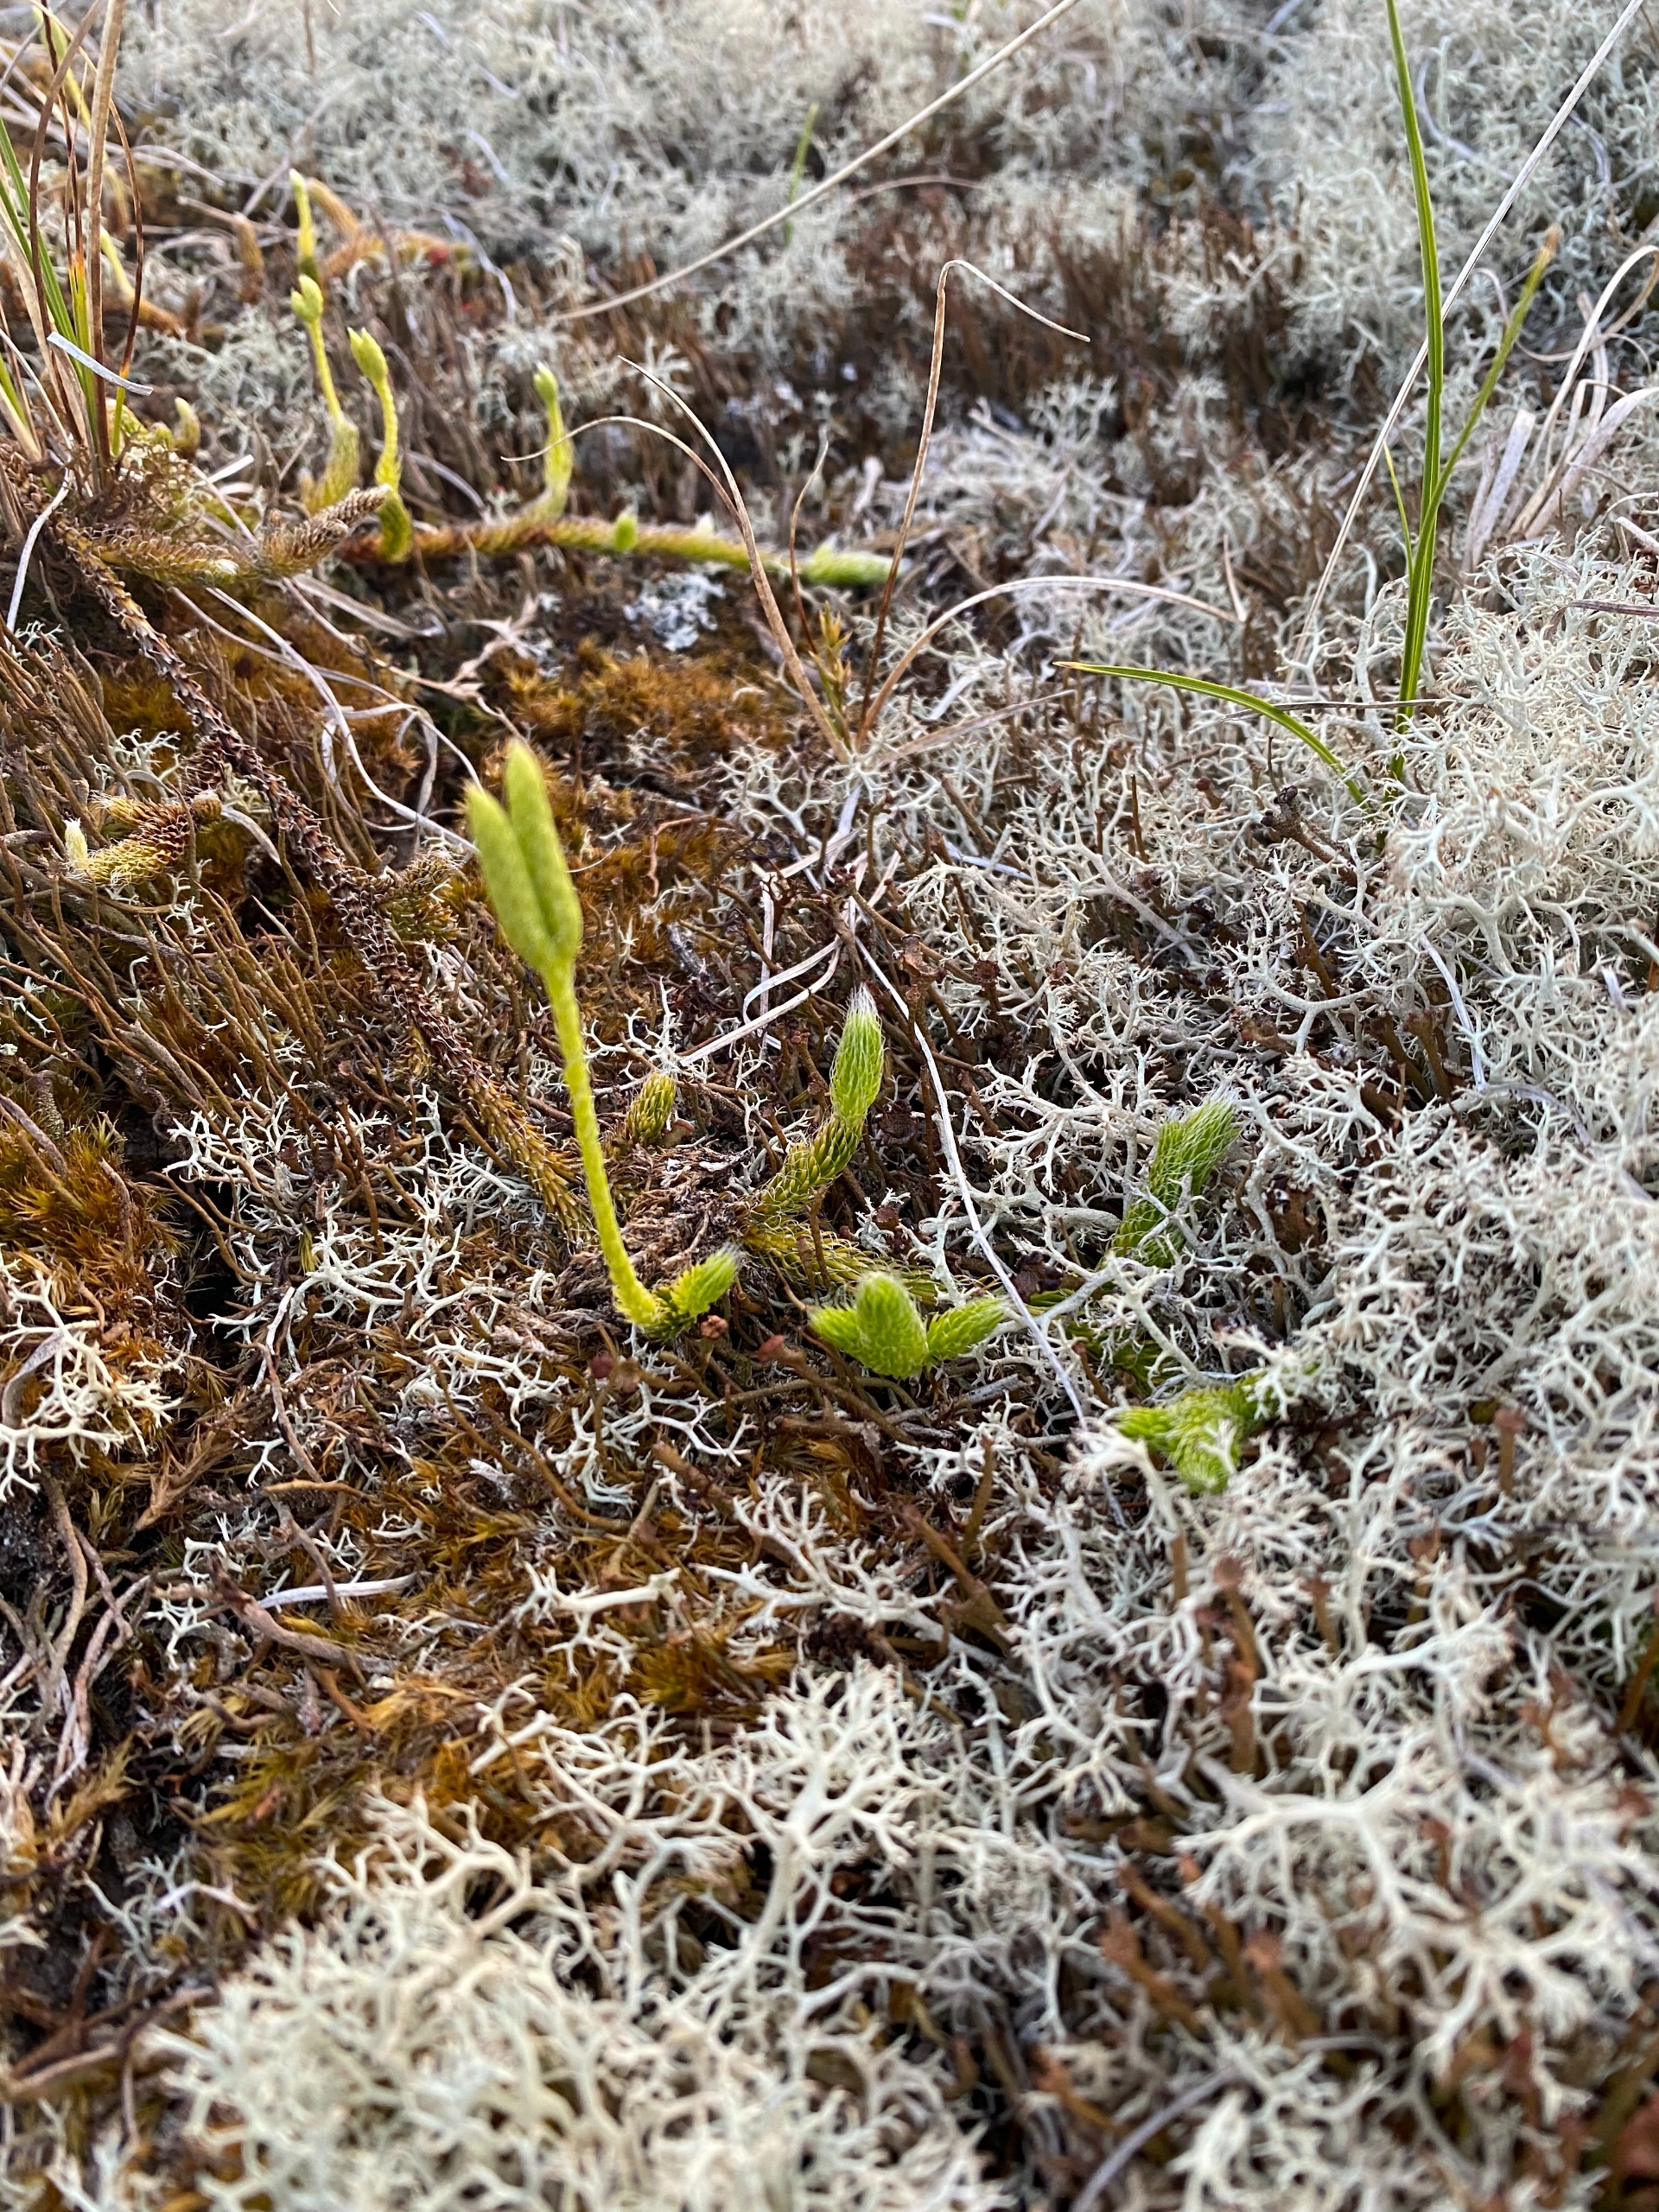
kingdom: Plantae
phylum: Tracheophyta
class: Lycopodiopsida
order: Lycopodiales
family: Lycopodiaceae
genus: Lycopodium
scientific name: Lycopodium clavatum
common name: Almindelig ulvefod
